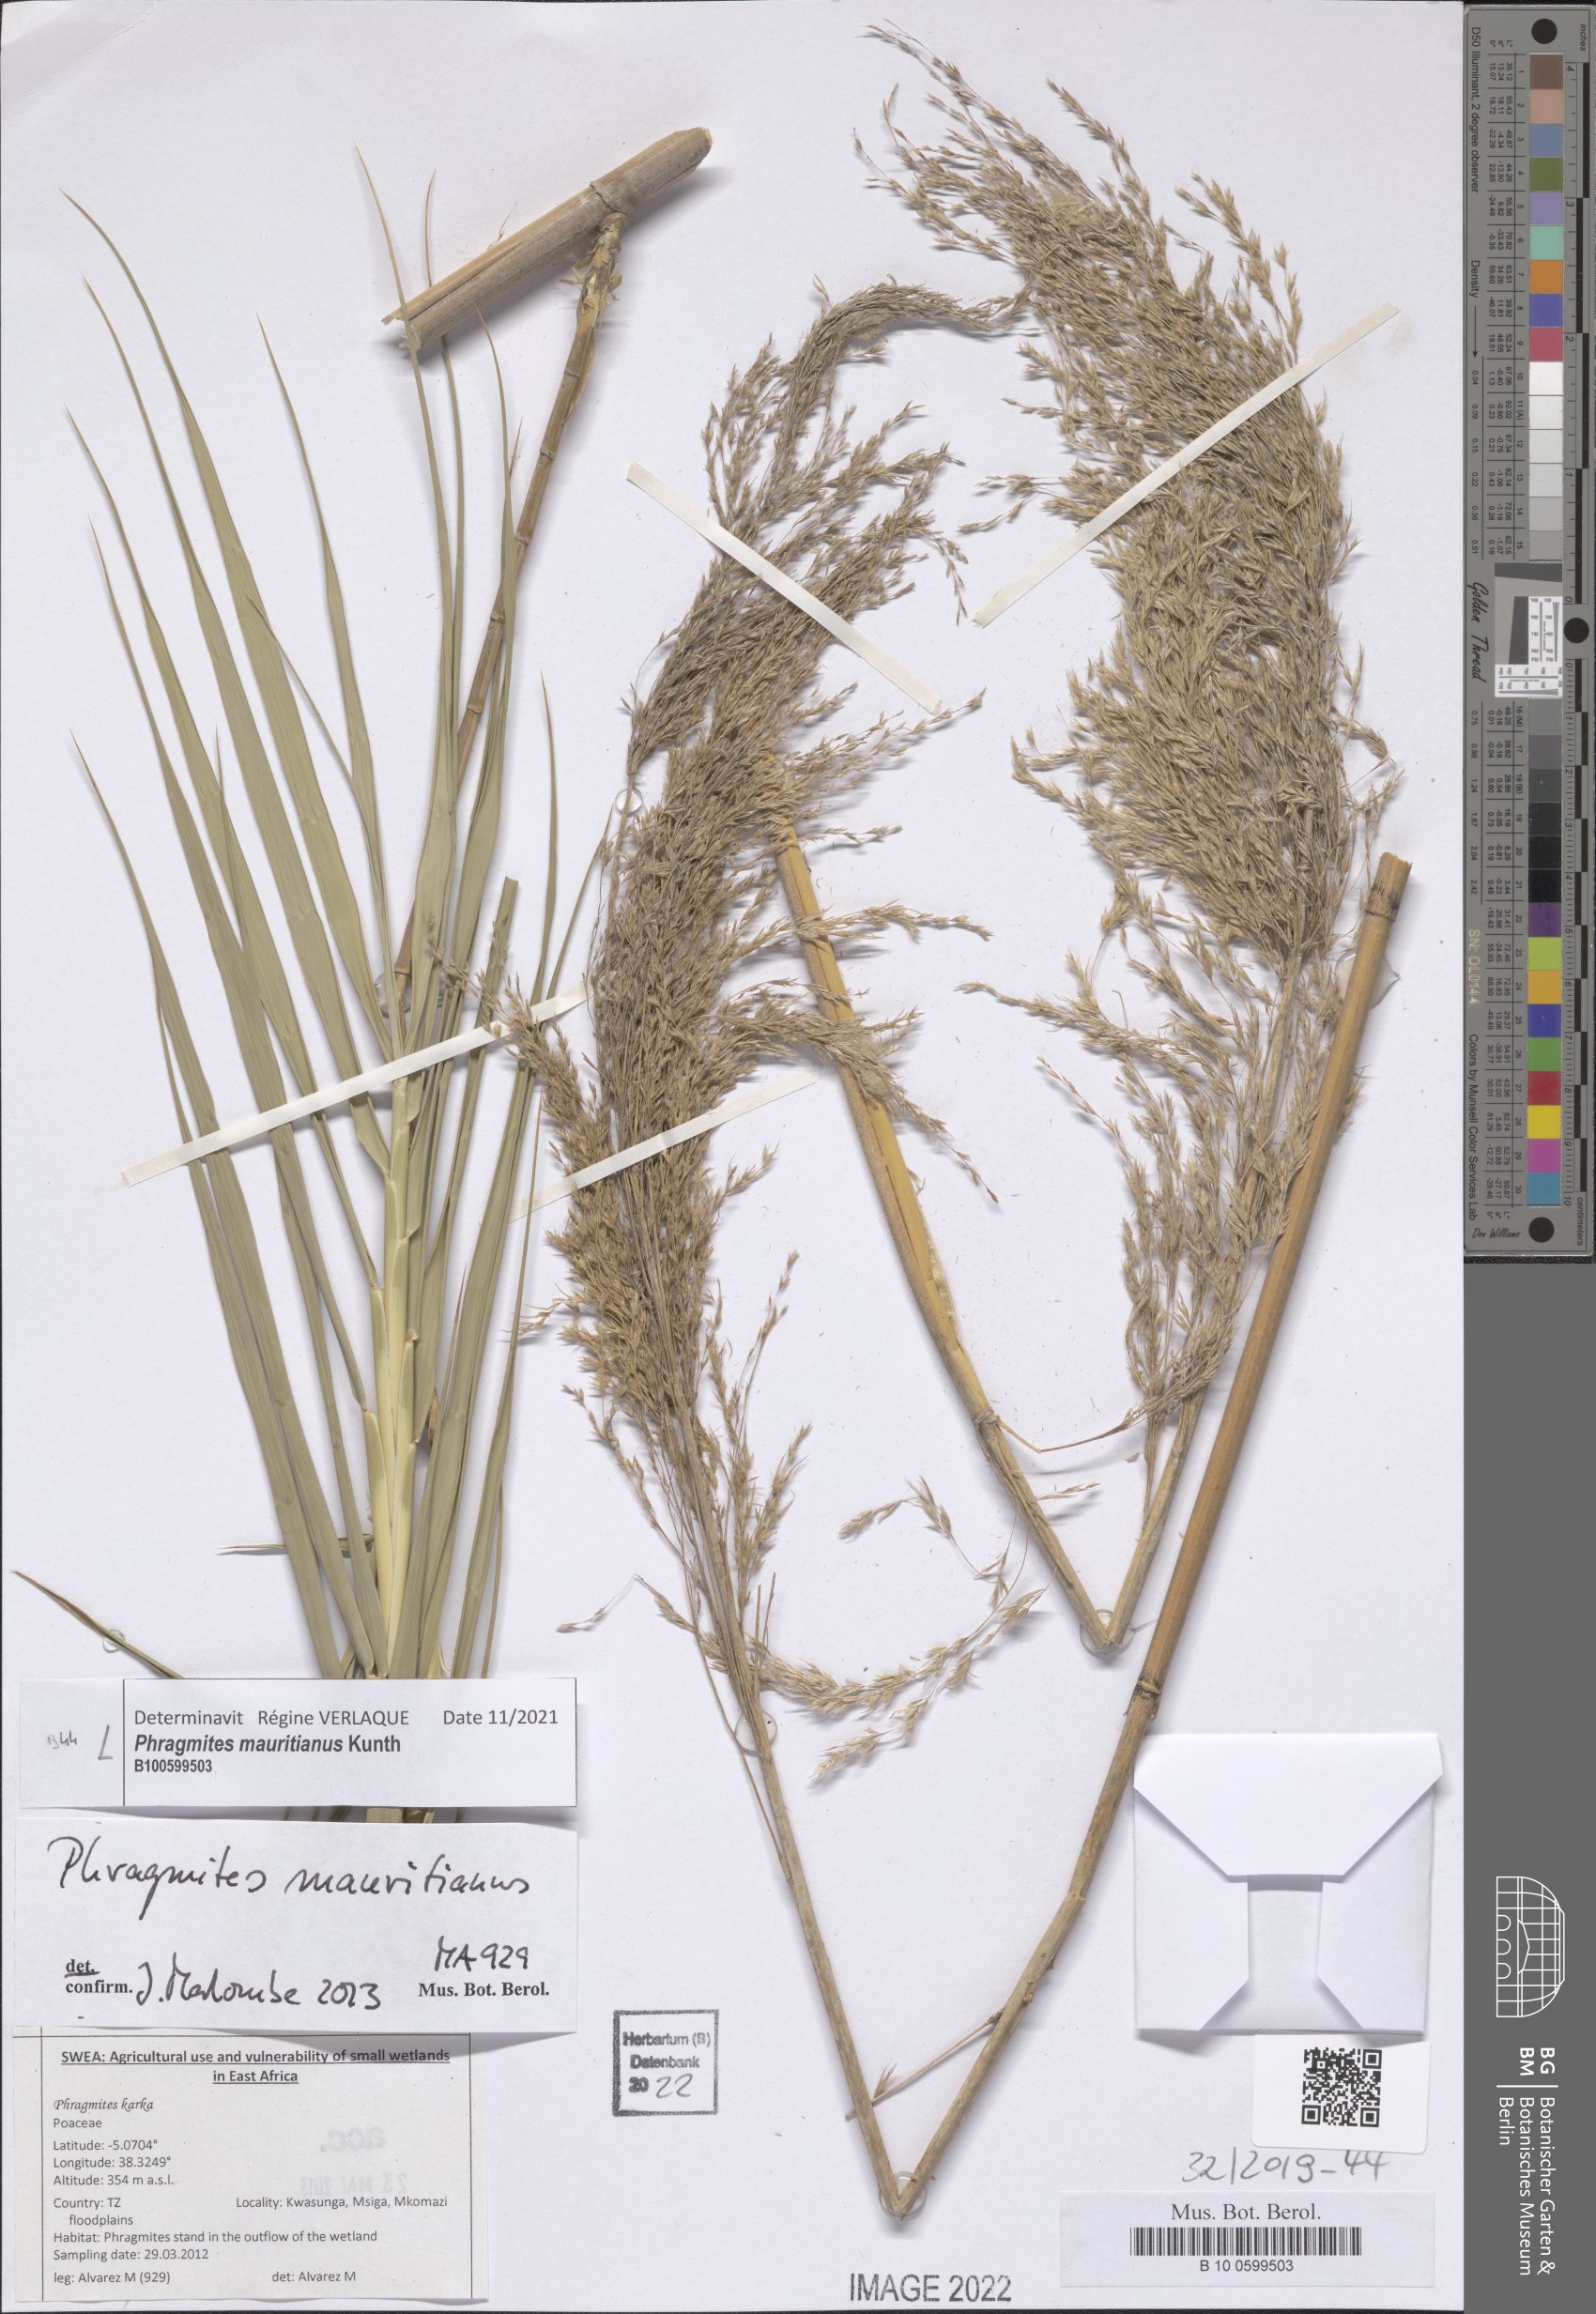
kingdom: Plantae
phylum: Tracheophyta
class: Liliopsida
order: Poales
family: Poaceae
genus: Phragmites
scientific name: Phragmites mauritianus
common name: Reed grass
